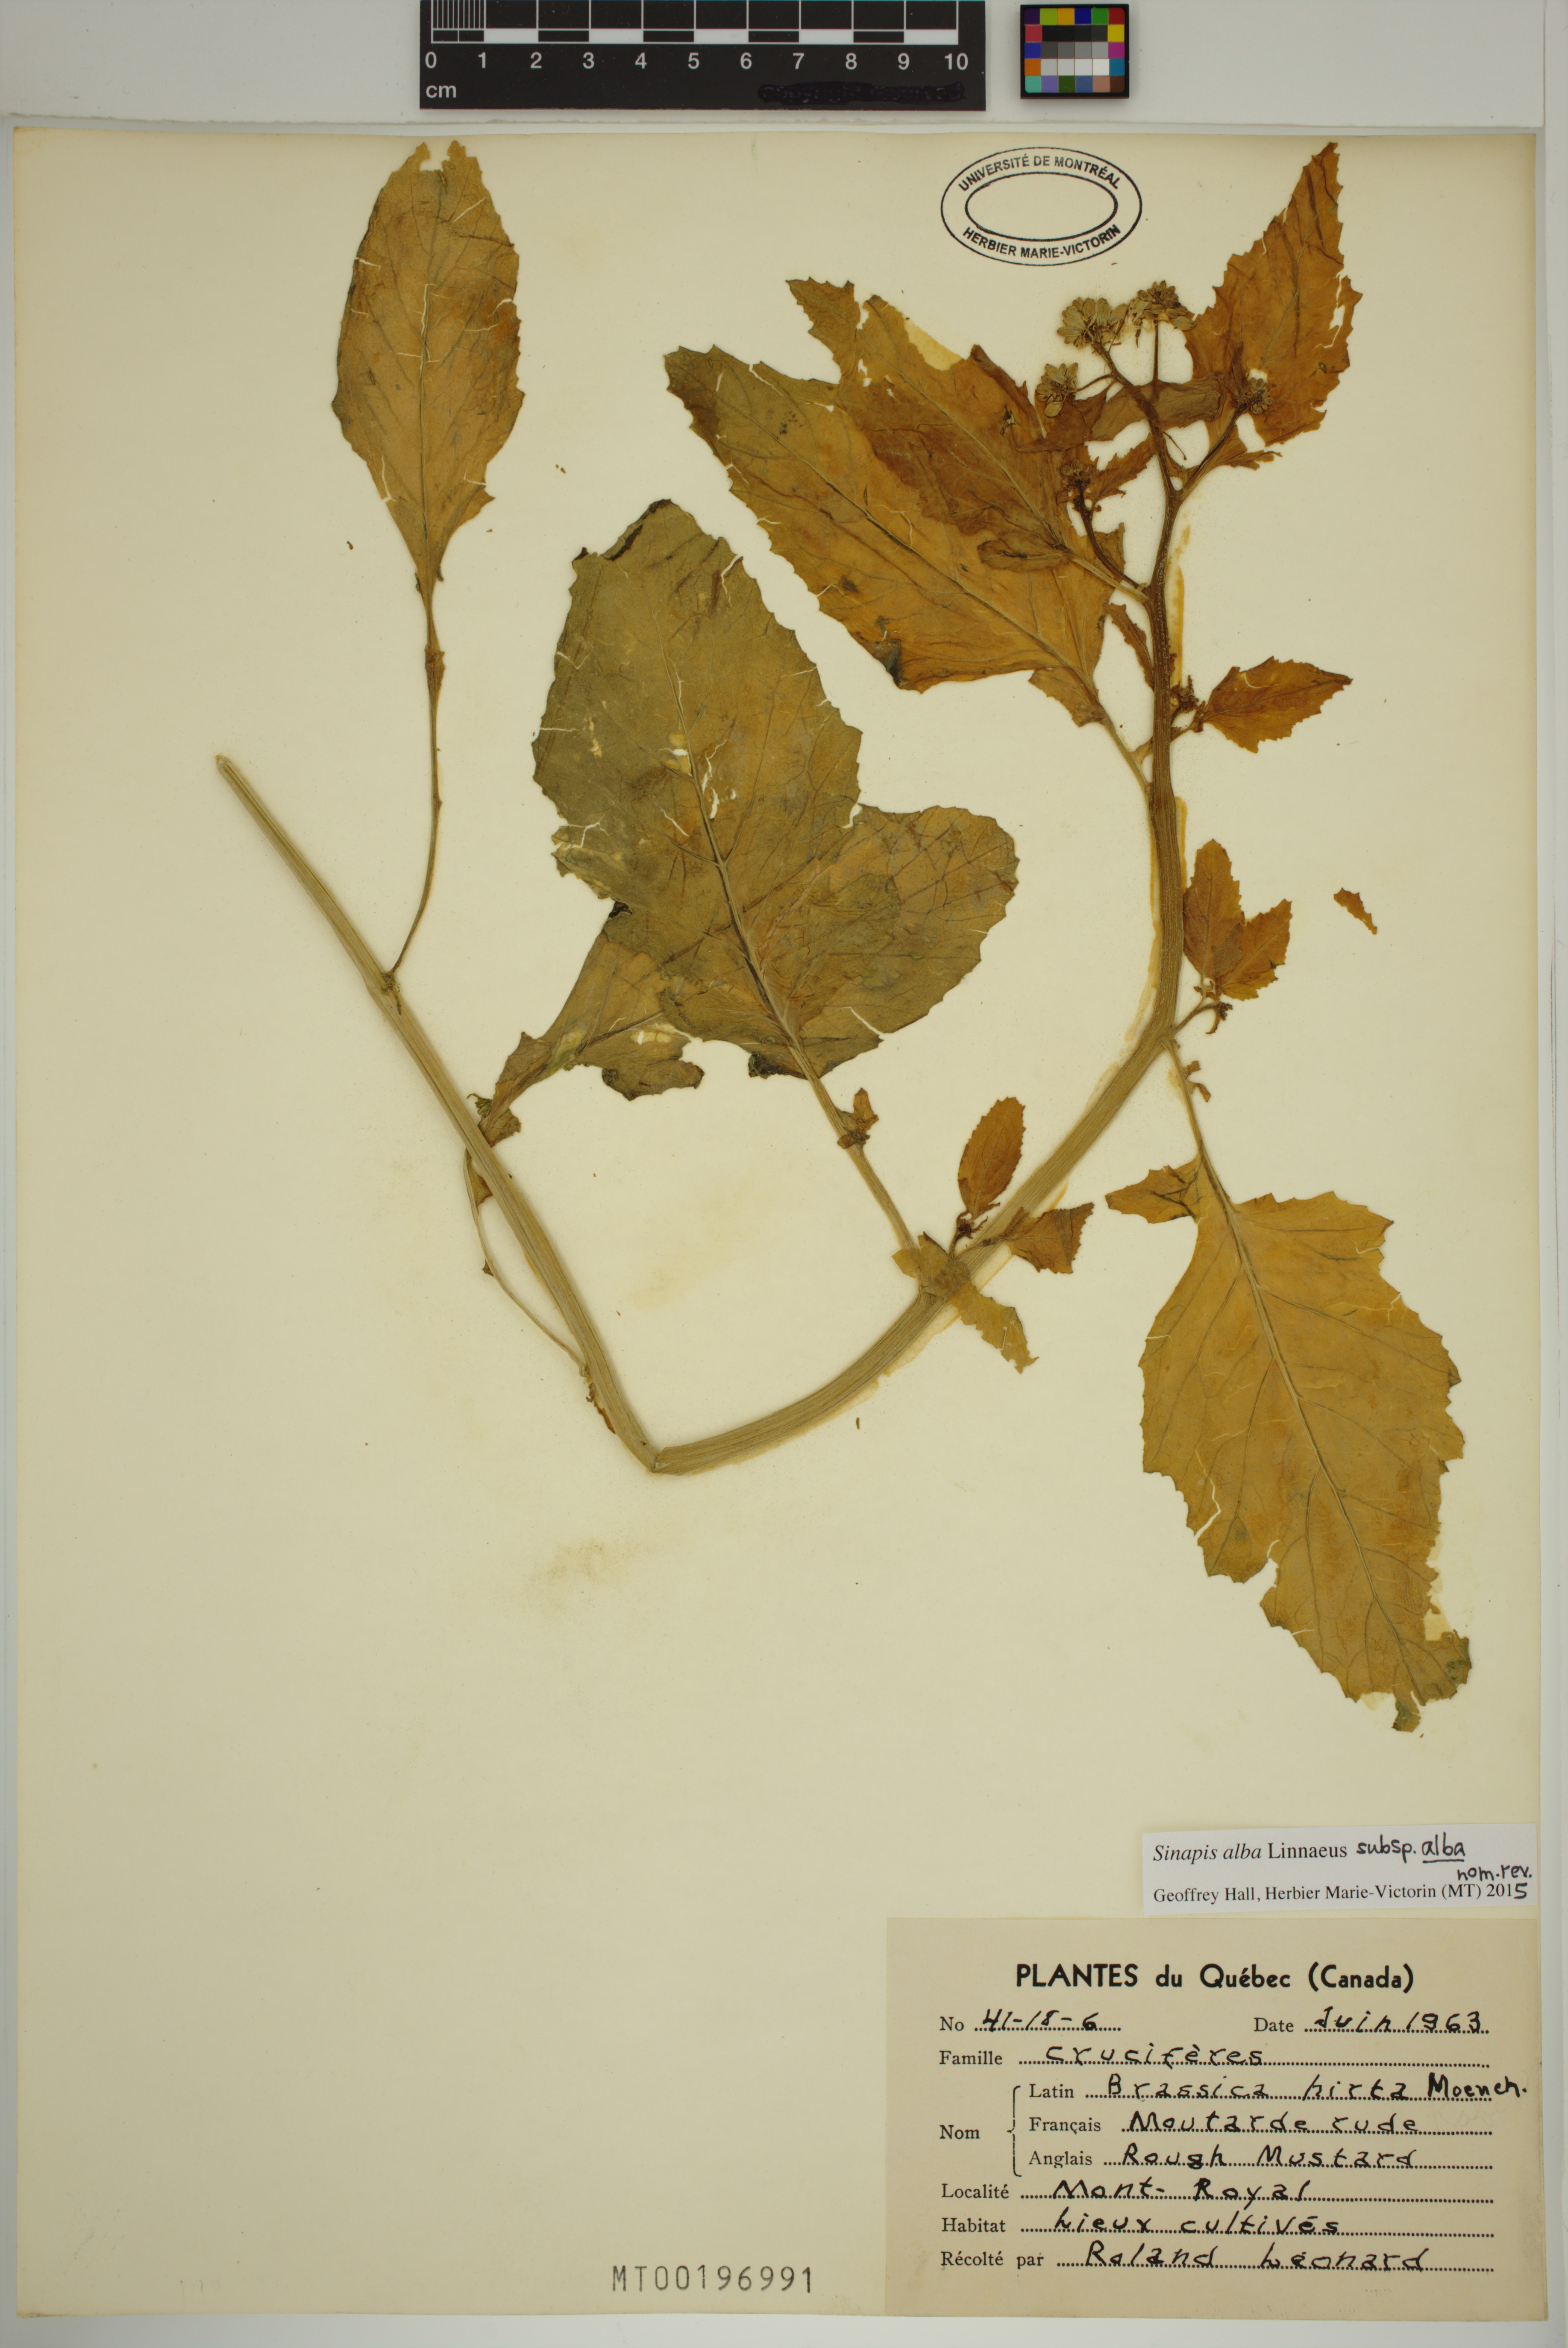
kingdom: Plantae
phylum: Tracheophyta
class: Magnoliopsida
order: Brassicales
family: Brassicaceae
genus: Sinapis
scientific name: Sinapis alba
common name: White mustard
